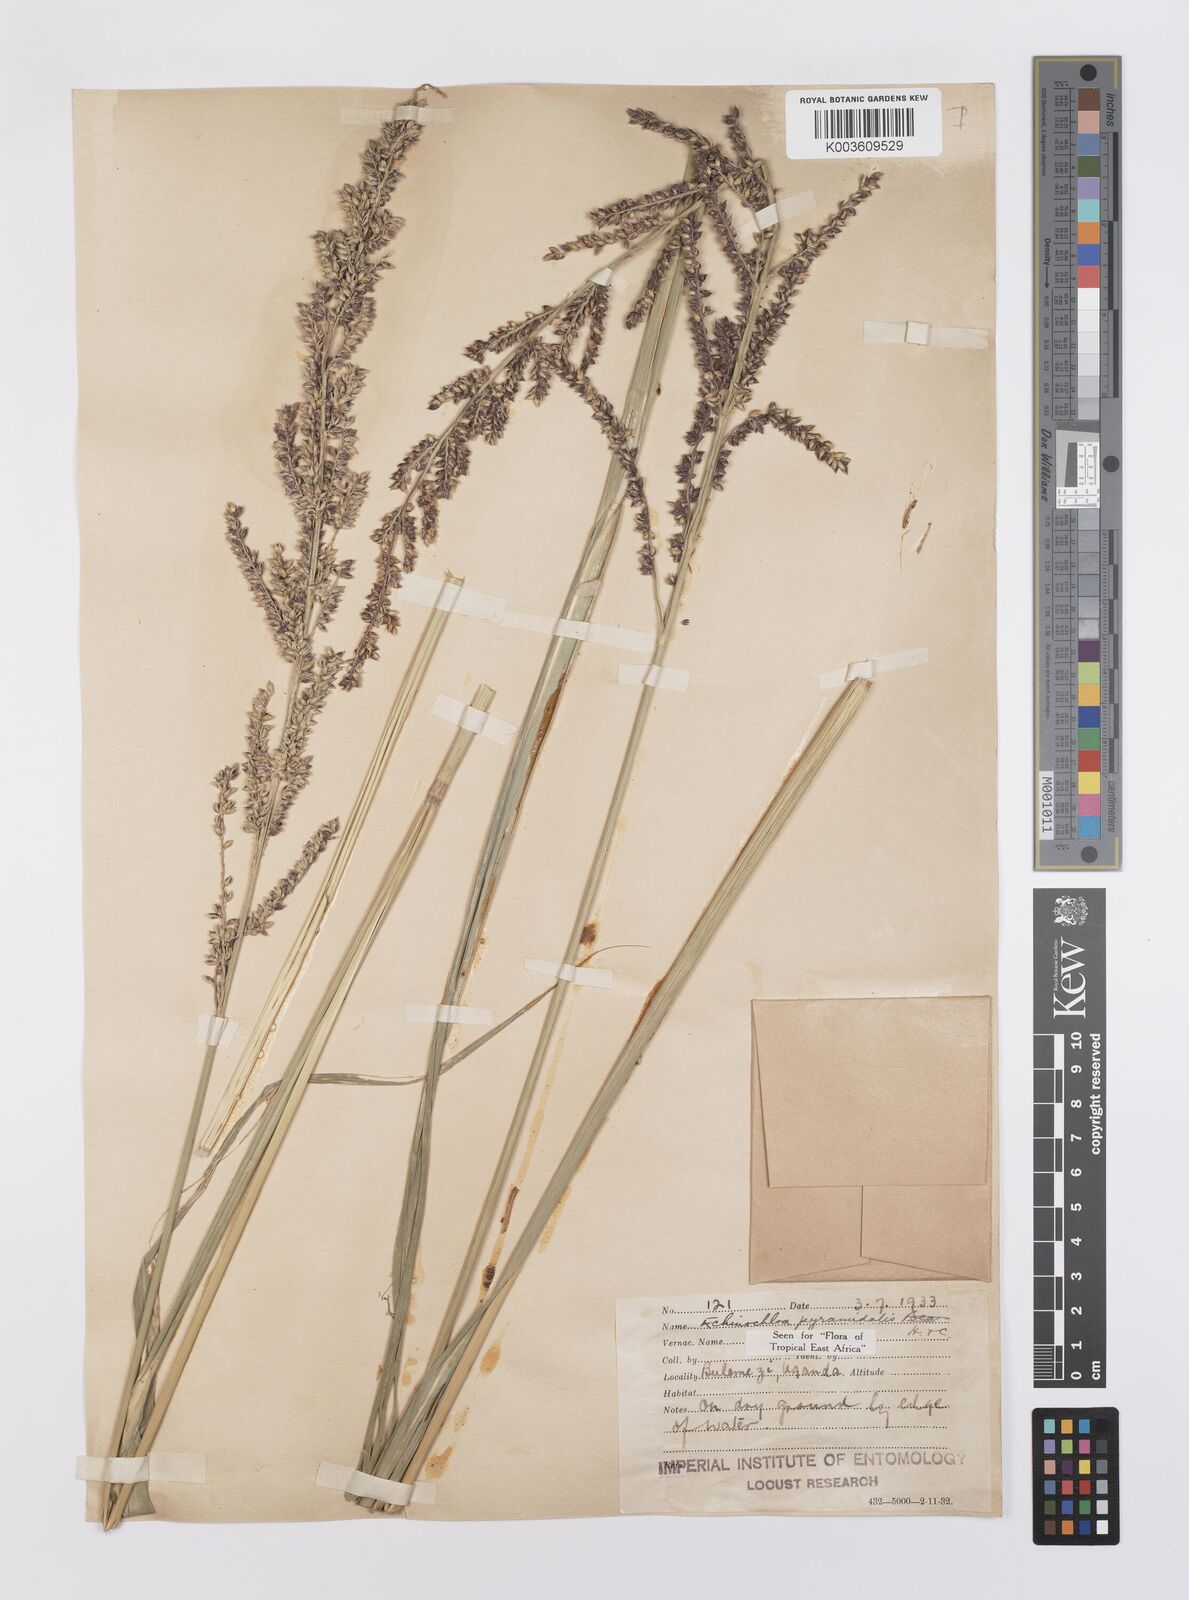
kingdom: Plantae
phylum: Tracheophyta
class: Liliopsida
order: Poales
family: Poaceae
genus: Echinochloa
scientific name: Echinochloa pyramidalis
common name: Antelope grass
